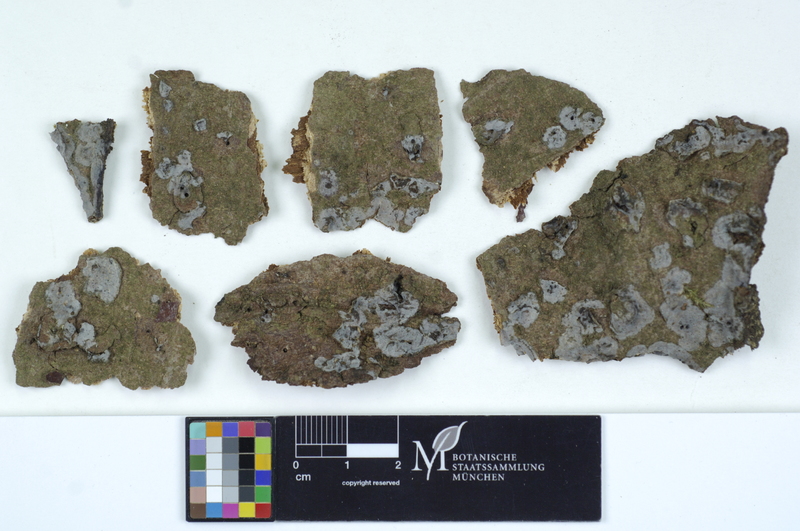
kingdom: Fungi
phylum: Basidiomycota
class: Agaricomycetes
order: Sebacinales
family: Sebacinaceae
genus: Sebacina
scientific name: Sebacina grisea
